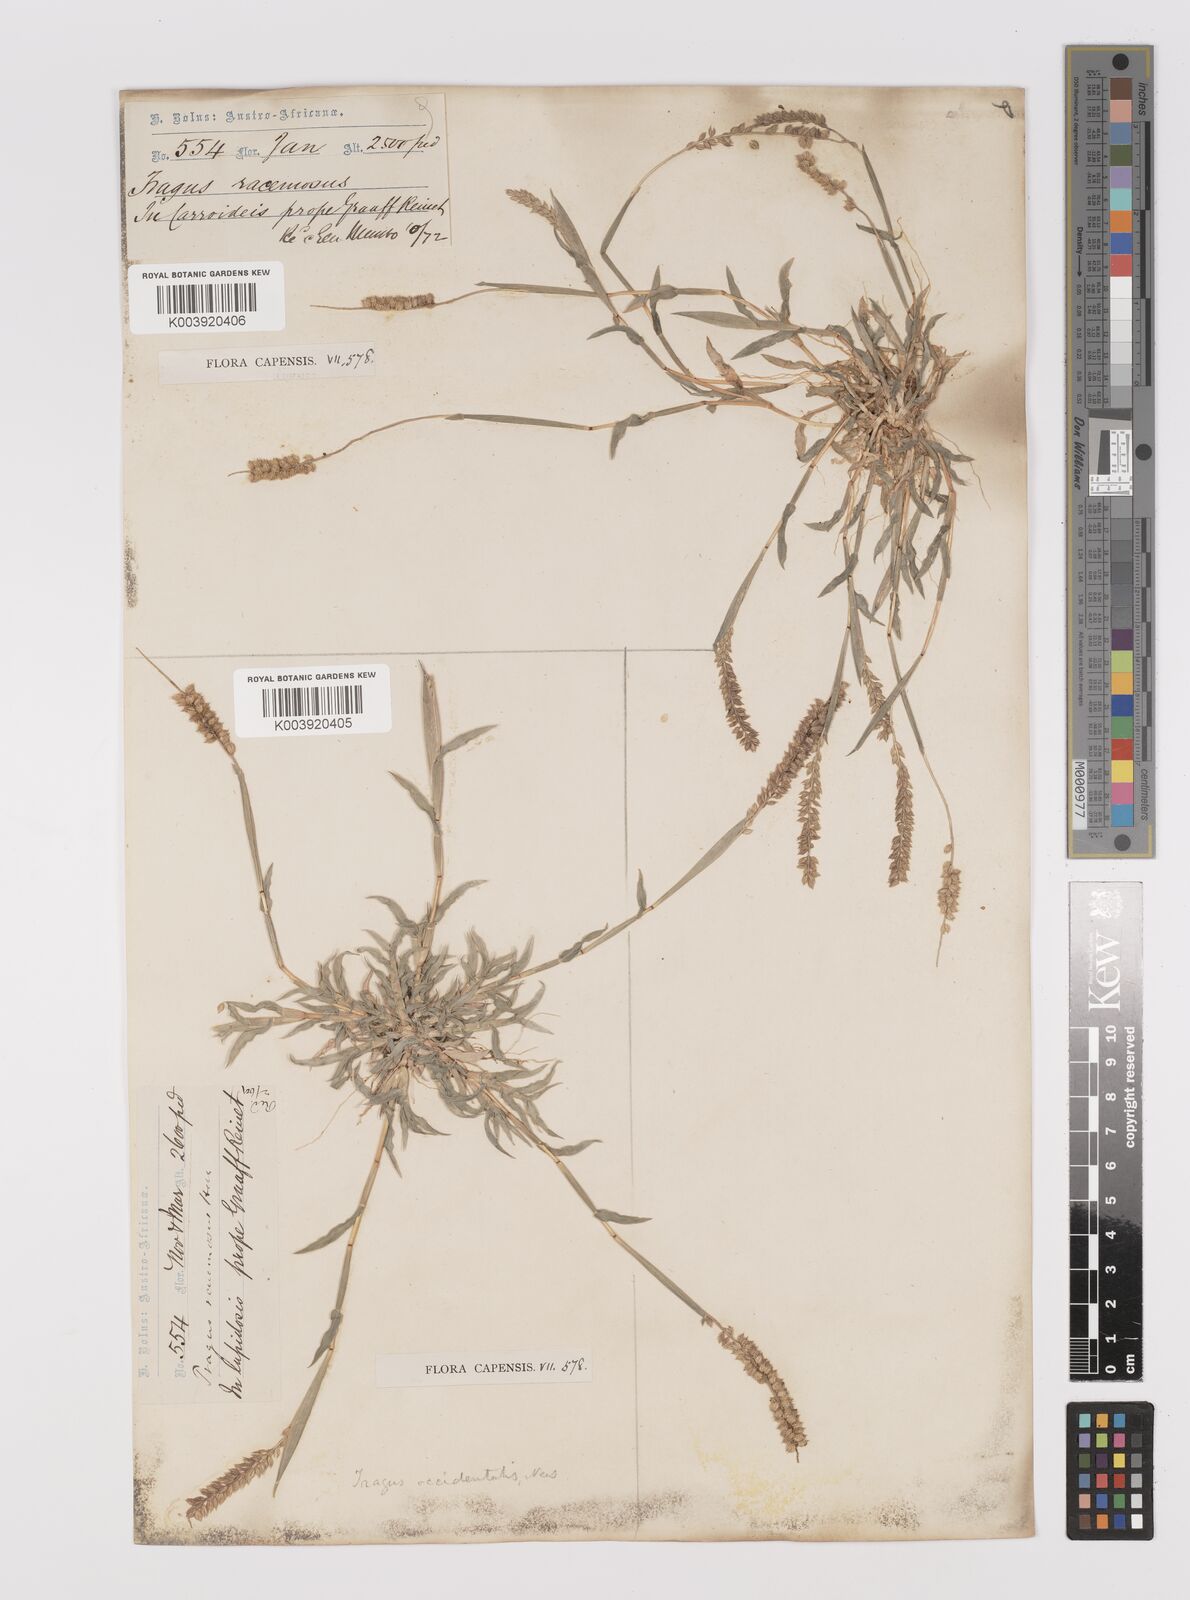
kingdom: Plantae
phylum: Tracheophyta
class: Liliopsida
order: Poales
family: Poaceae
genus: Tragus
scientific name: Tragus berteronianus
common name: African bur-grass
